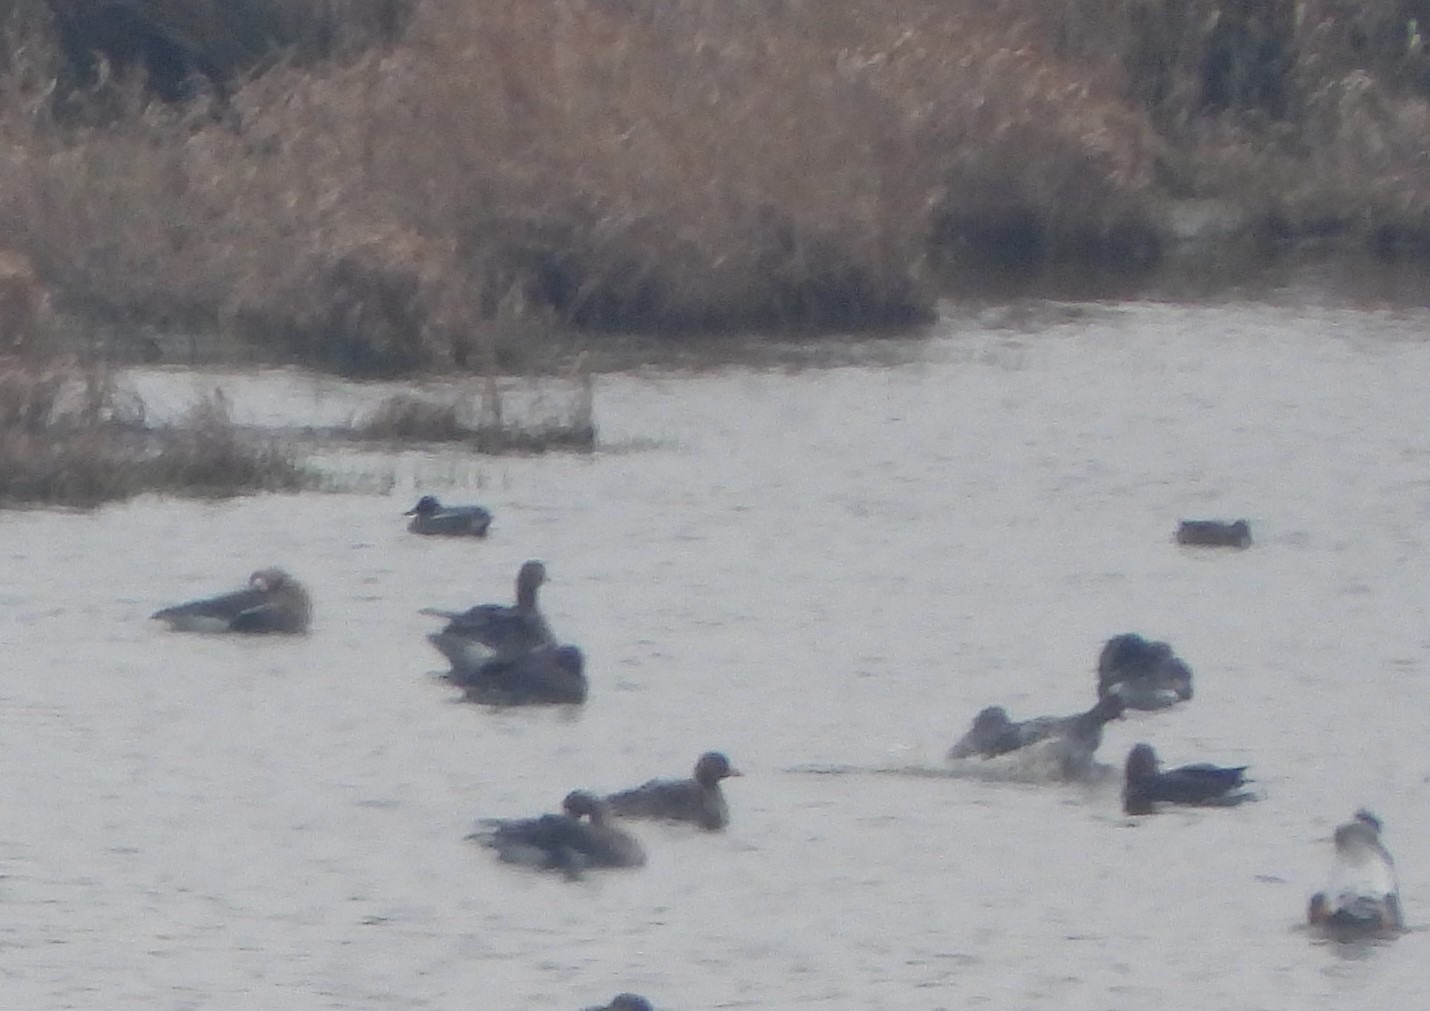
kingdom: Animalia
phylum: Chordata
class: Aves
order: Anseriformes
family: Anatidae
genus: Anas
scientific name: Anas crecca
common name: Krikand
